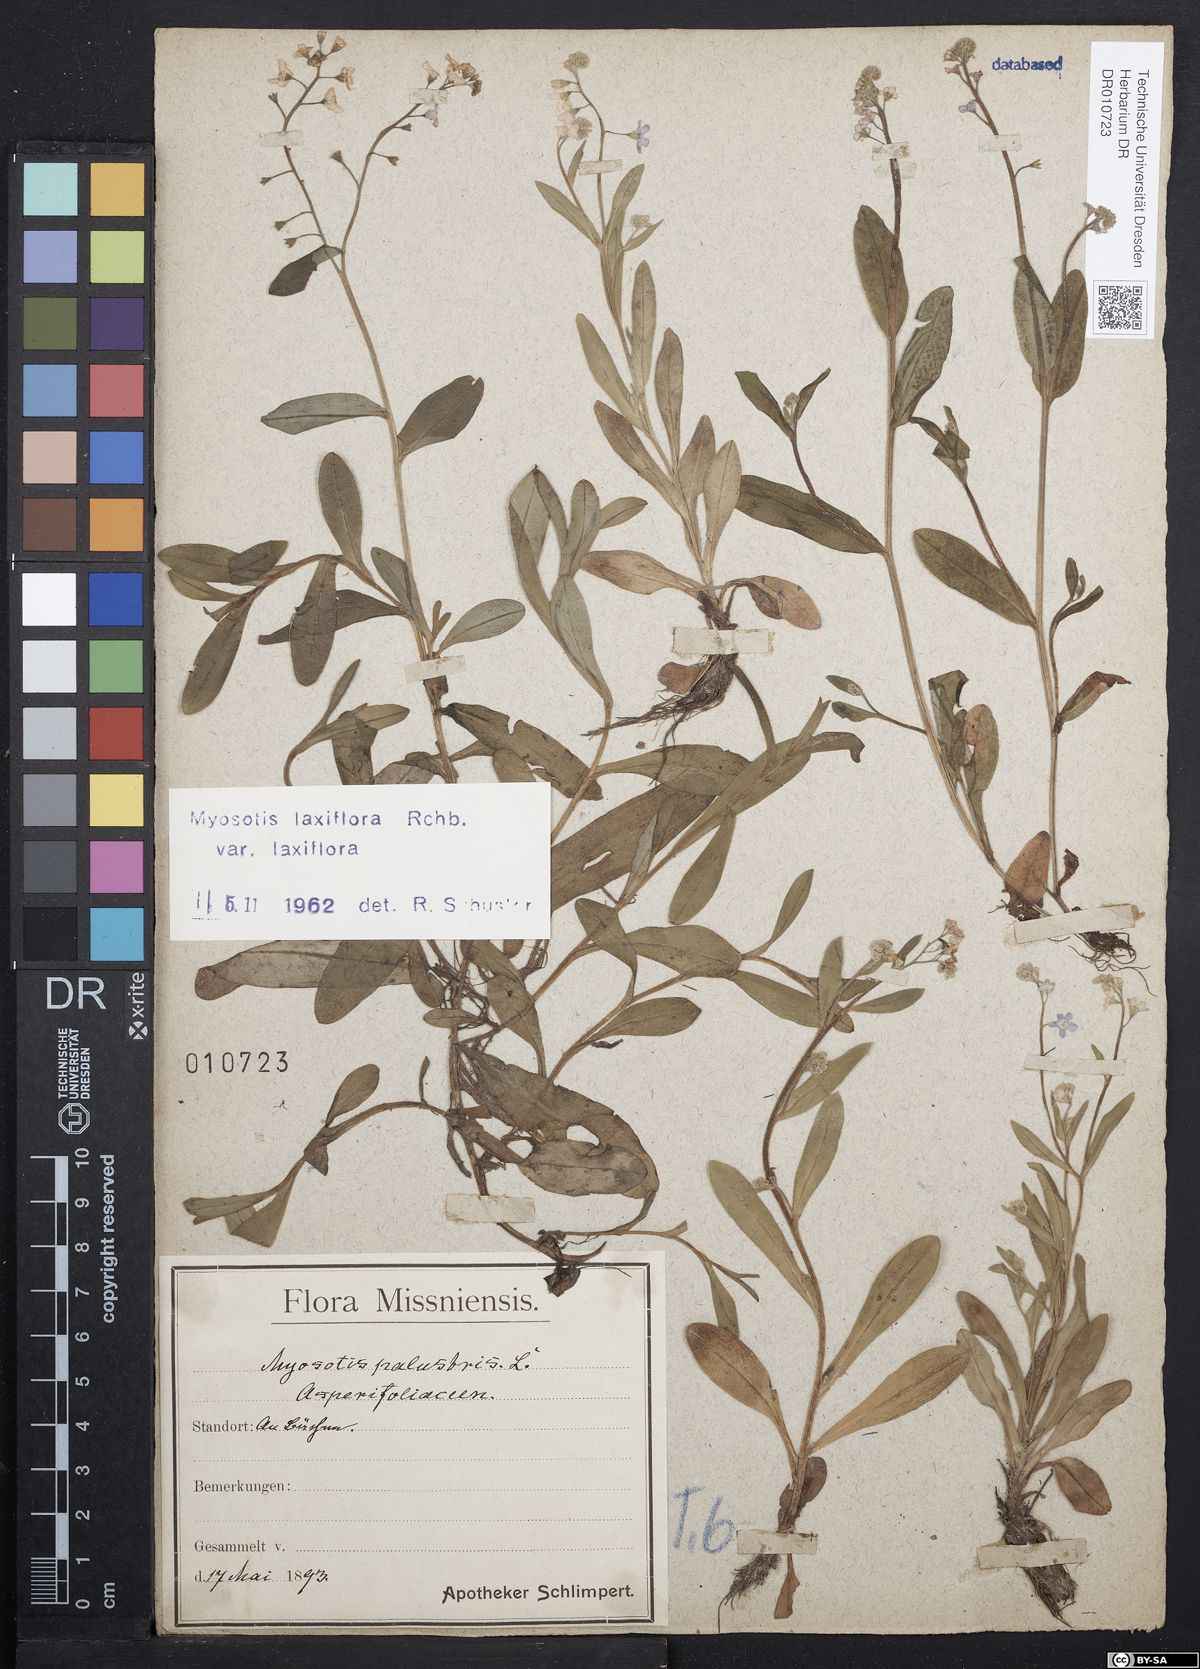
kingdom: Plantae
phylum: Tracheophyta
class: Magnoliopsida
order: Boraginales
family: Boraginaceae
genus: Myosotis
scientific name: Myosotis scorpioides
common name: Water forget-me-not
